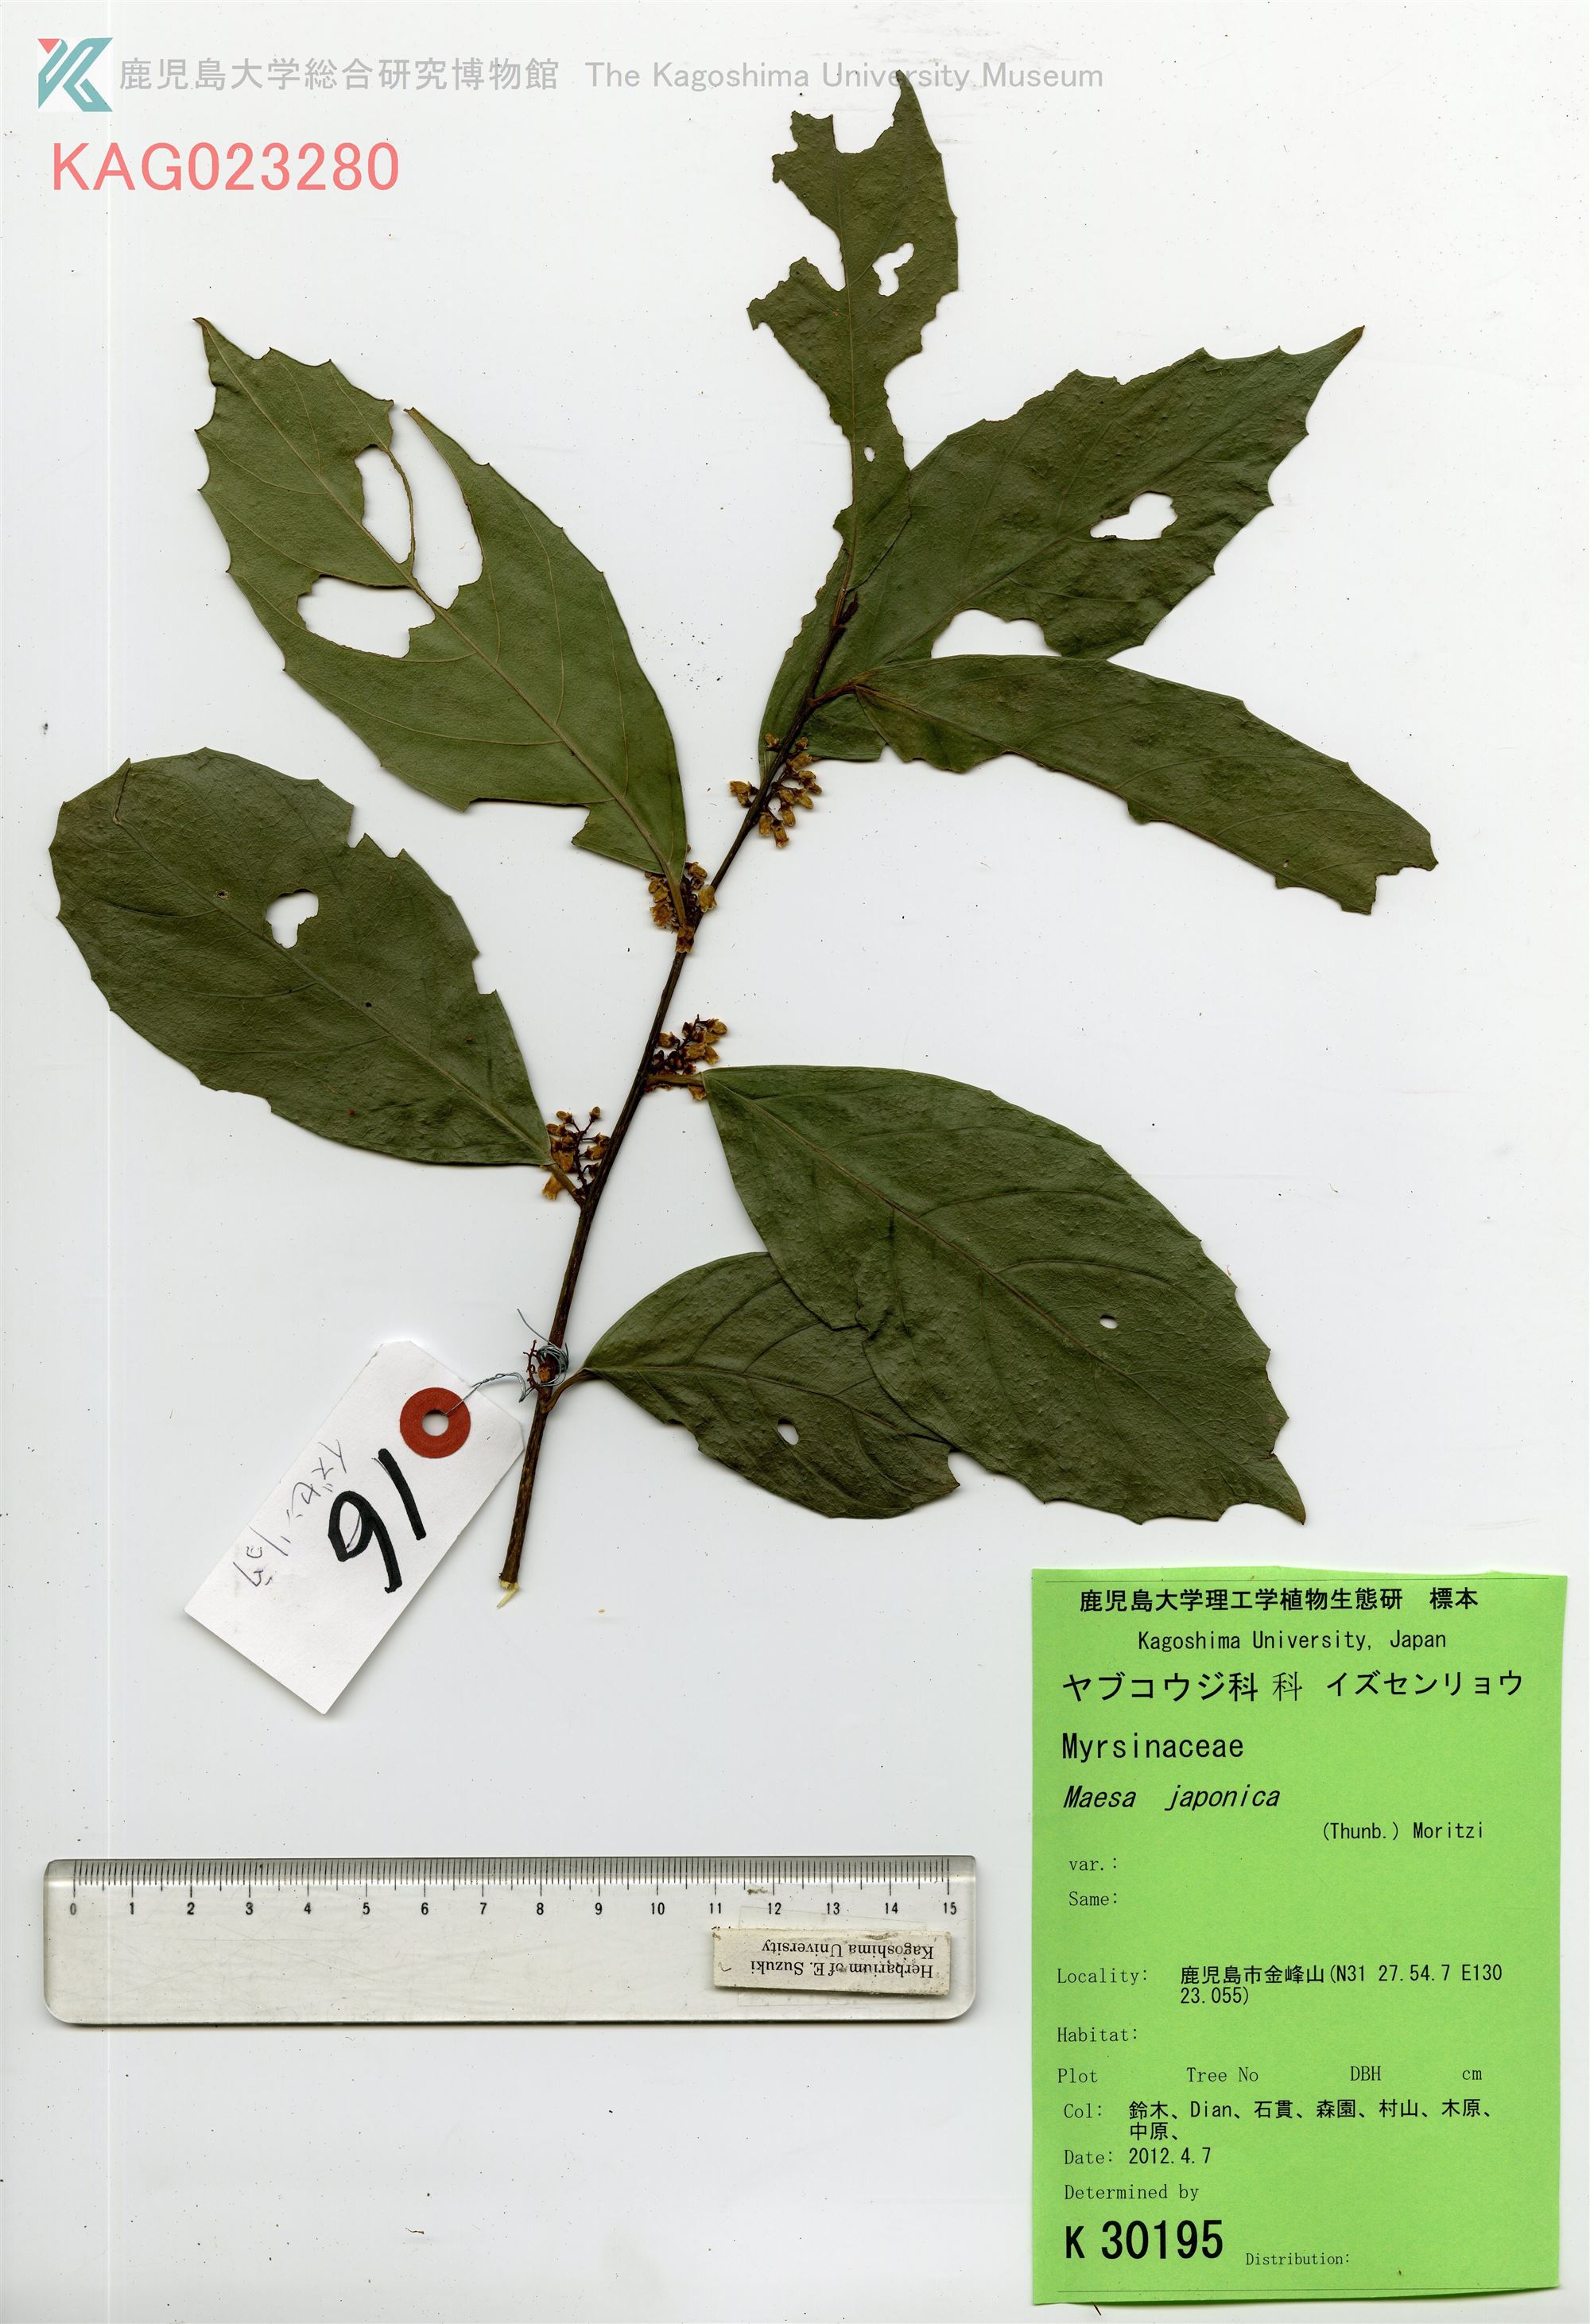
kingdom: Plantae
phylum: Tracheophyta
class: Magnoliopsida
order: Ericales
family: Primulaceae
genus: Maesa
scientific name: Maesa japonica
